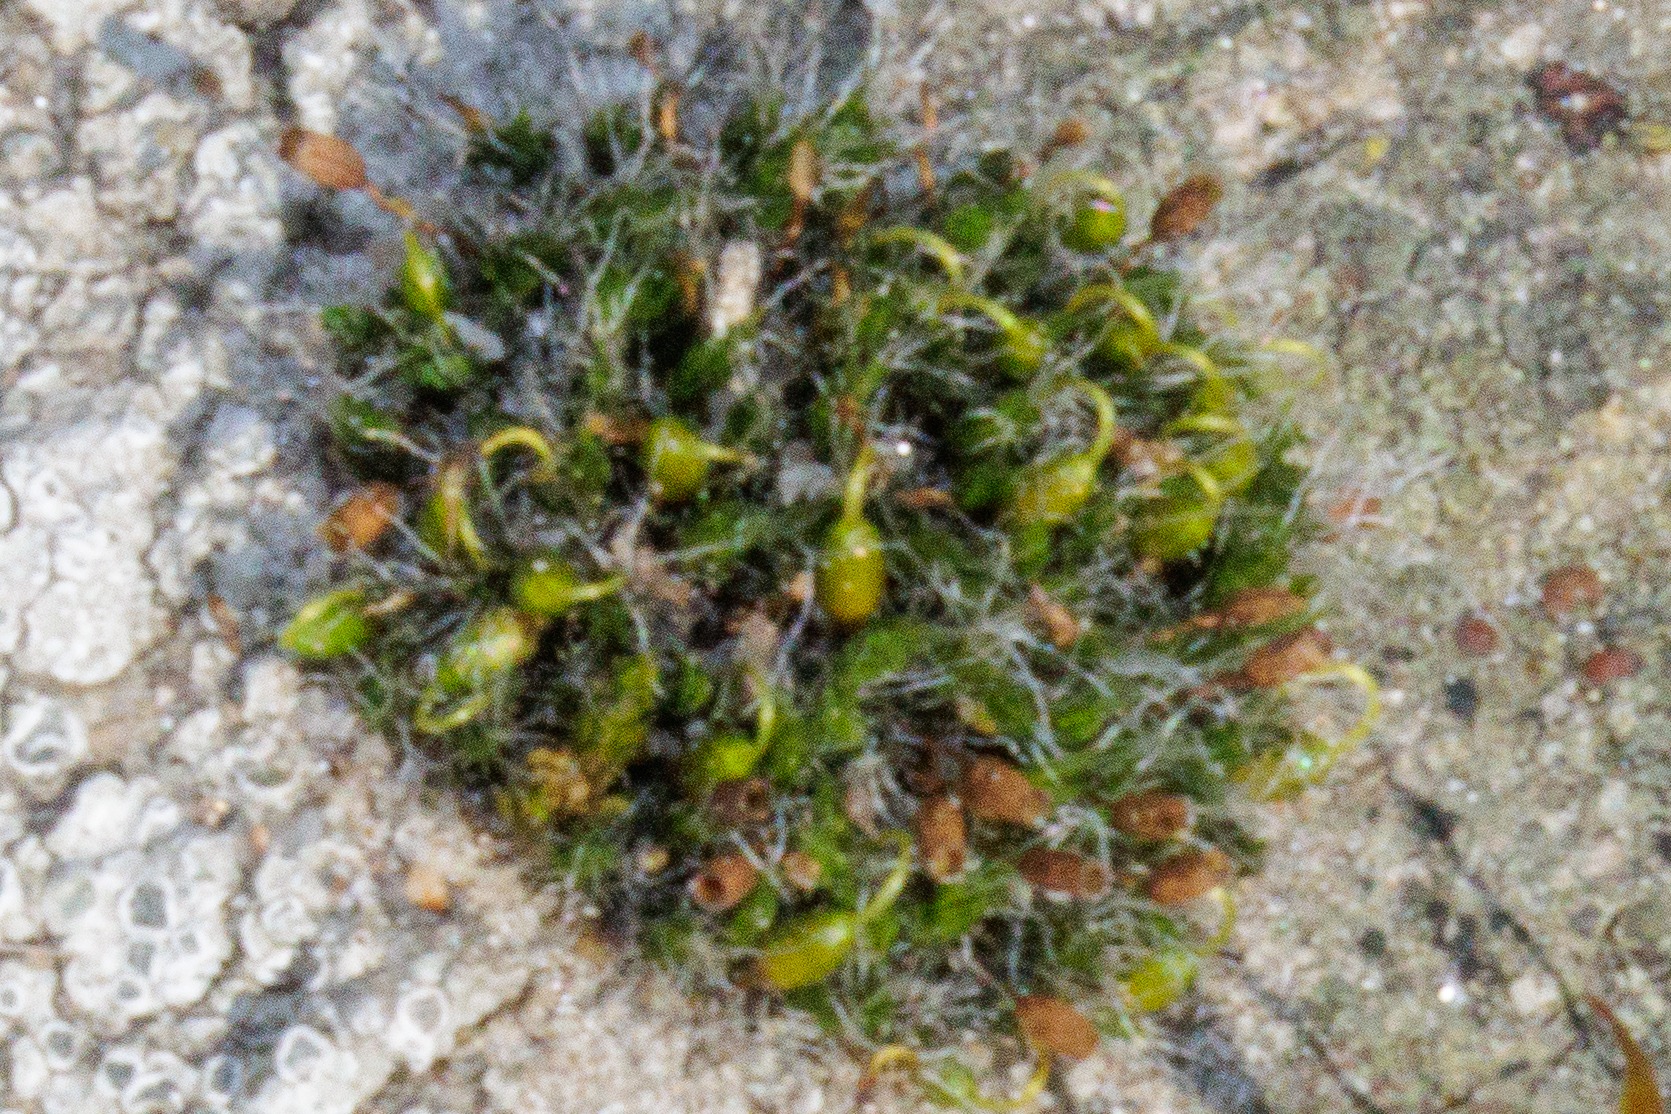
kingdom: Plantae
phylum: Bryophyta
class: Bryopsida
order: Grimmiales
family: Grimmiaceae
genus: Grimmia
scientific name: Grimmia pulvinata
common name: Pude-gråmos
